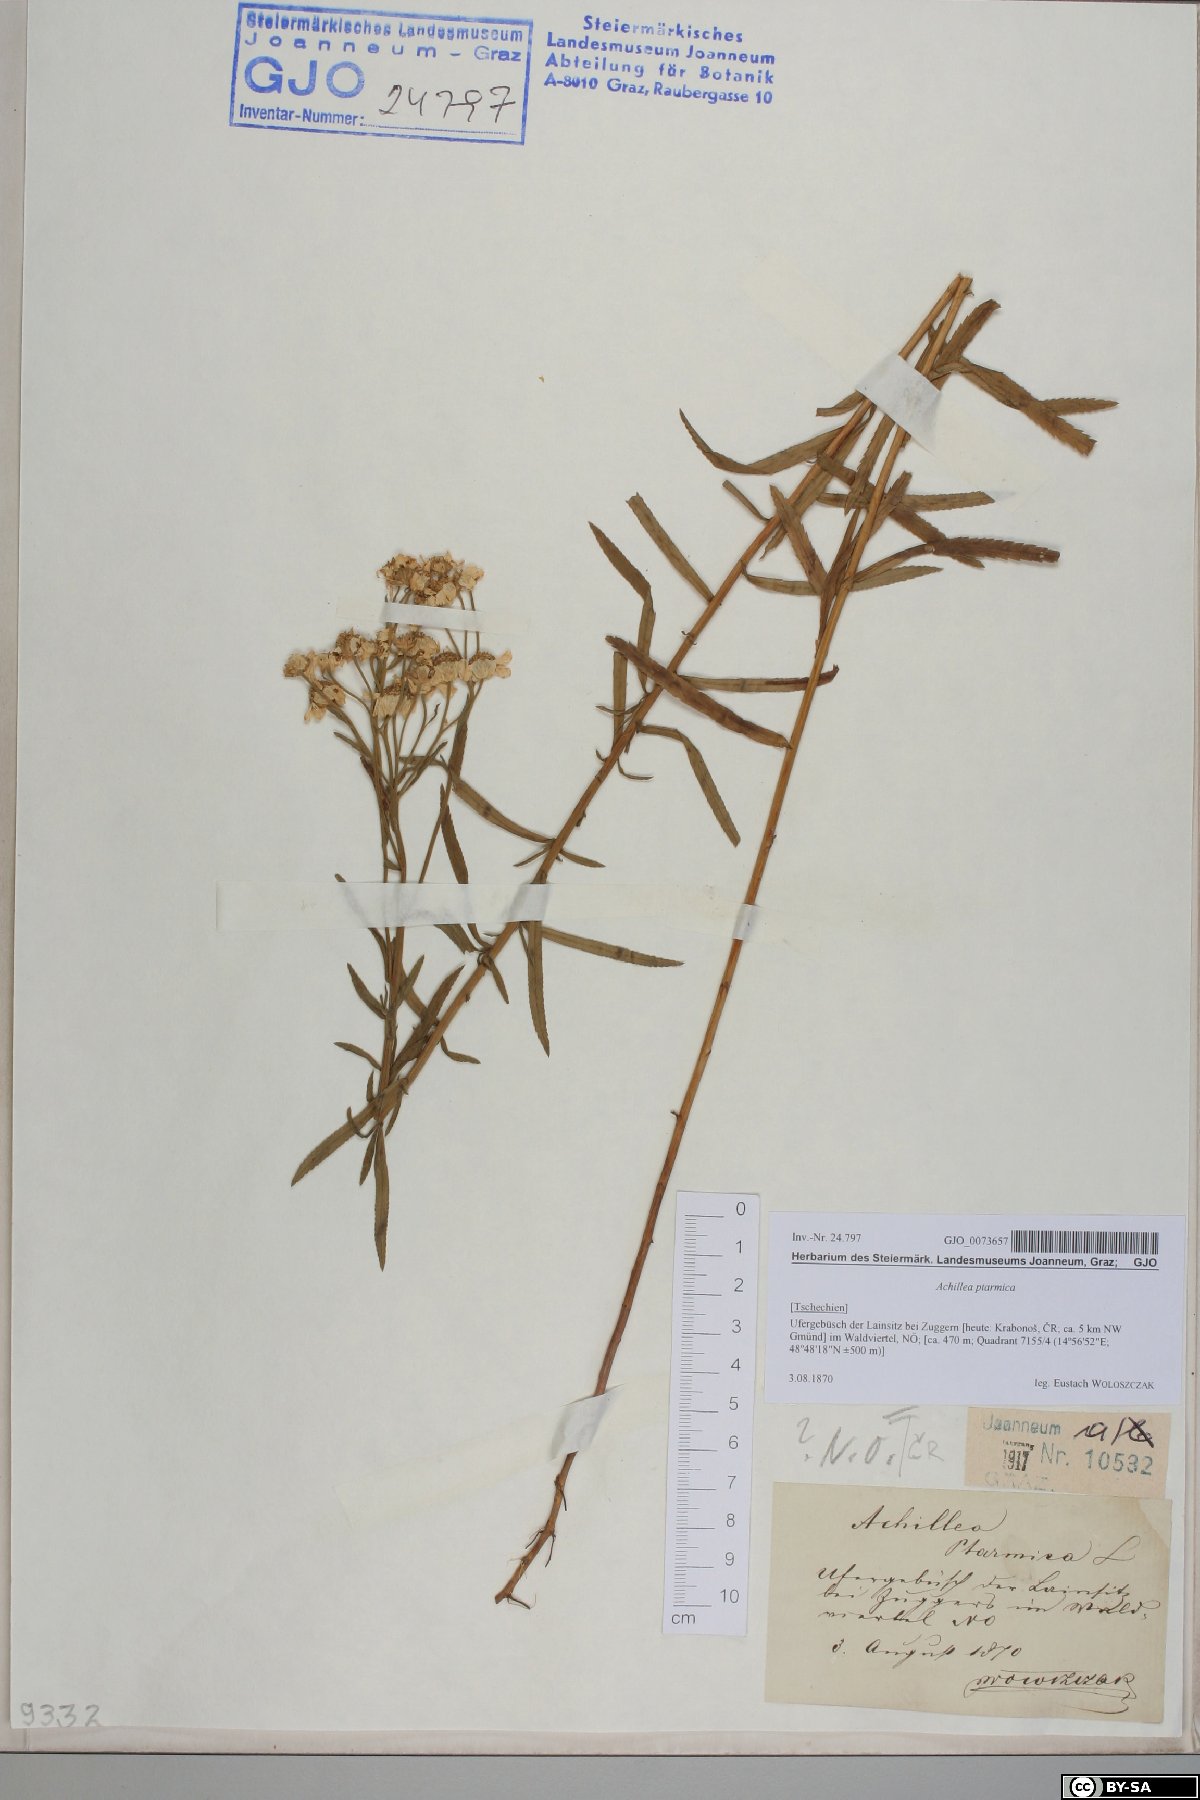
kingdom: Plantae
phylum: Tracheophyta
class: Magnoliopsida
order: Asterales
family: Asteraceae
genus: Achillea
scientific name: Achillea ptarmica
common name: Sneezeweed
